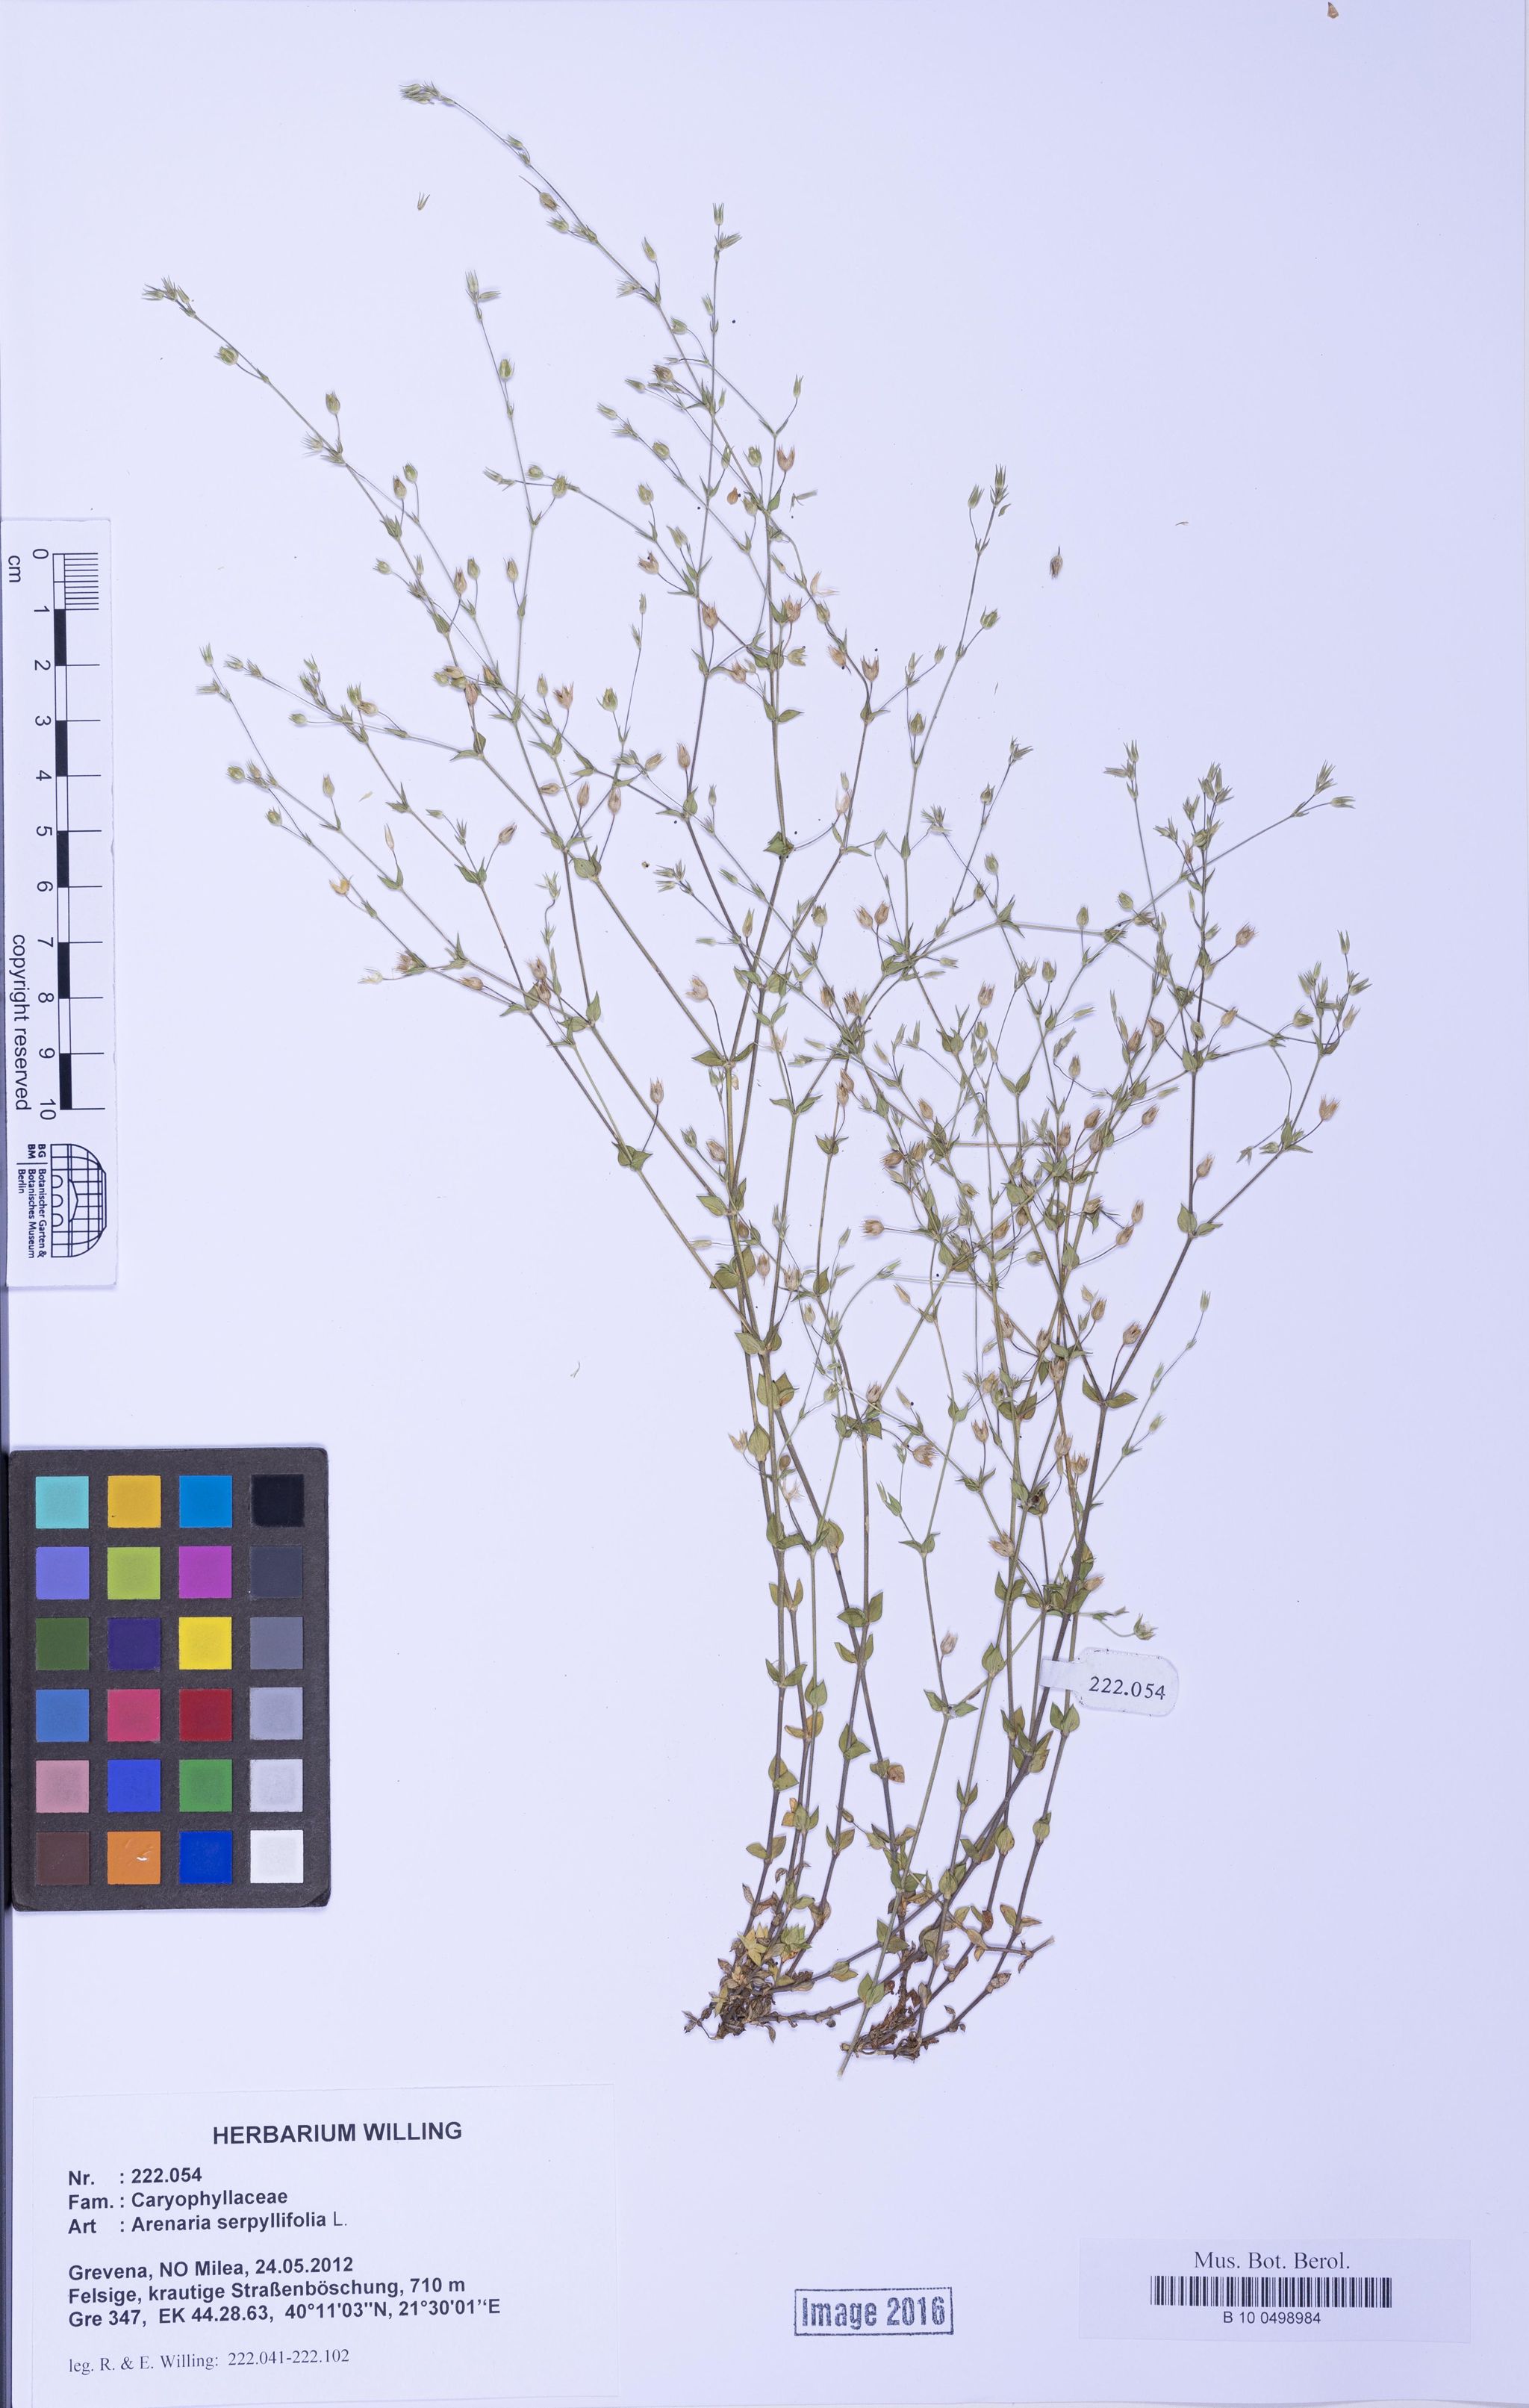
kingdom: Plantae
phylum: Tracheophyta
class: Magnoliopsida
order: Caryophyllales
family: Caryophyllaceae
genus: Arenaria
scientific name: Arenaria serpyllifolia
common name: Thyme-leaved sandwort
